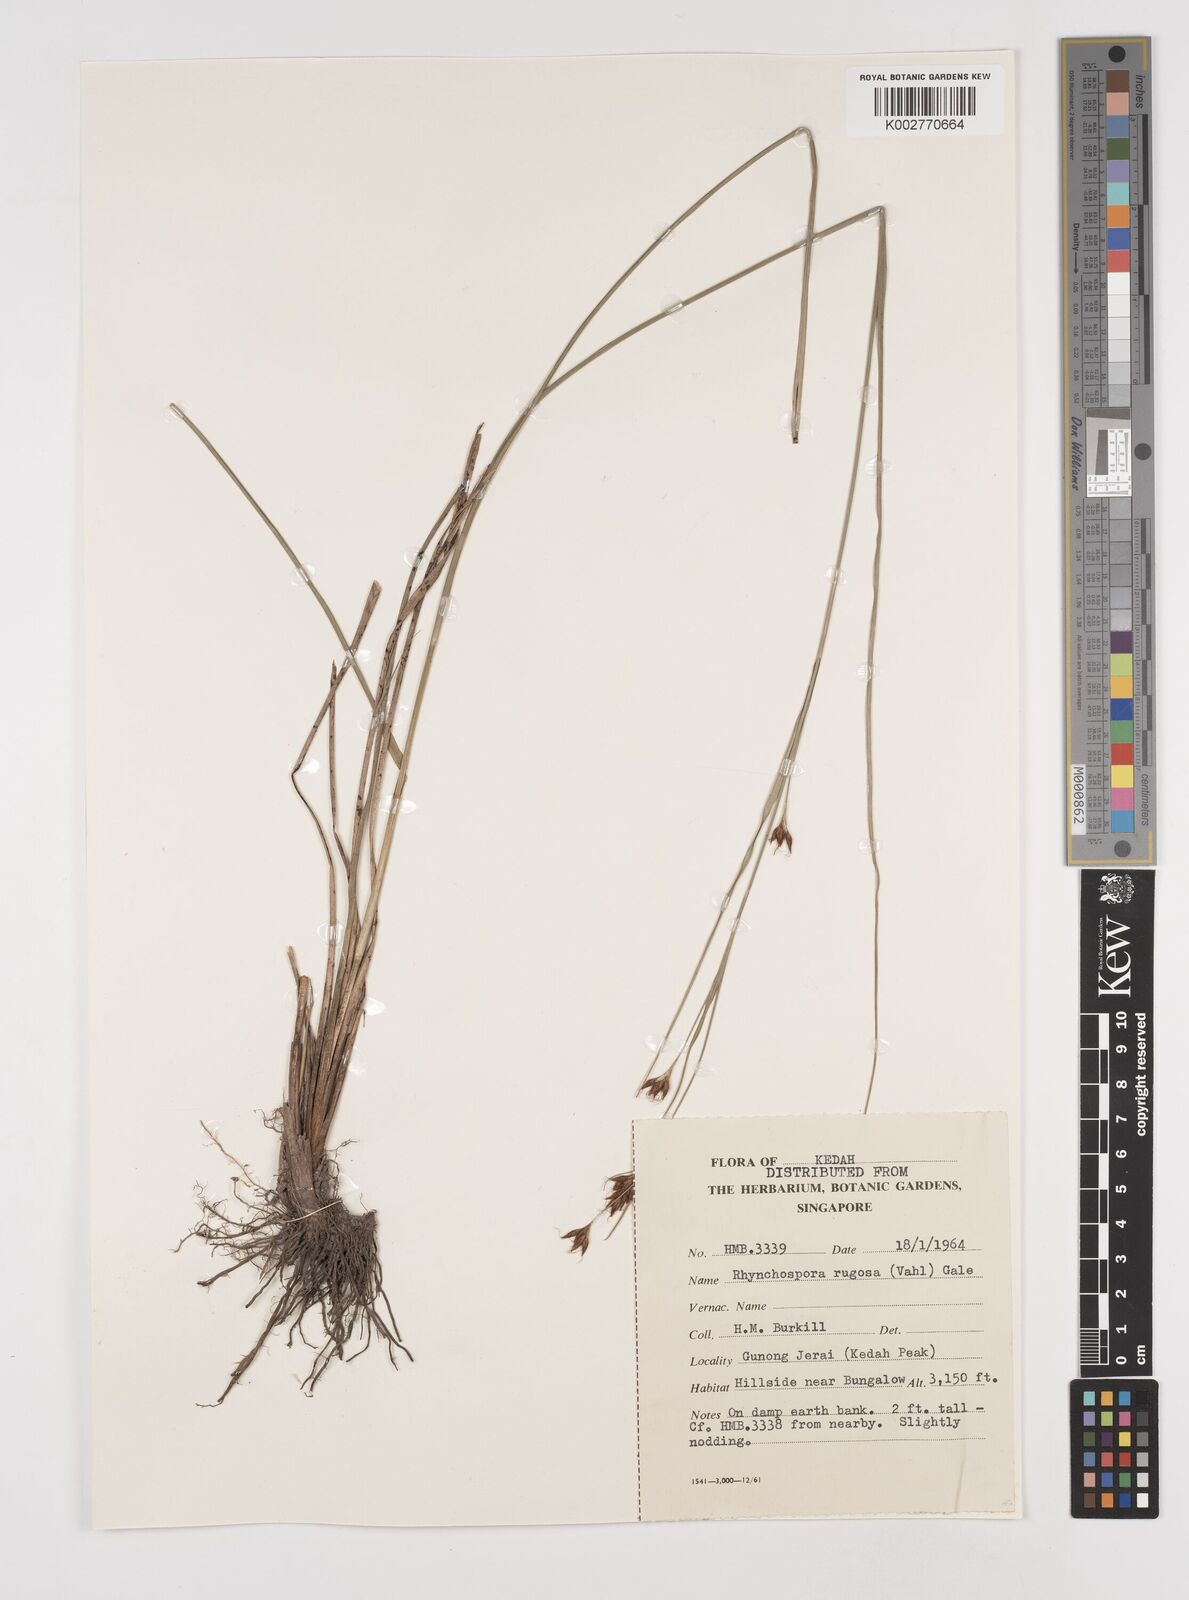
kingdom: Plantae
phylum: Tracheophyta
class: Liliopsida
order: Poales
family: Cyperaceae
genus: Rhynchospora
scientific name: Rhynchospora rugosa
